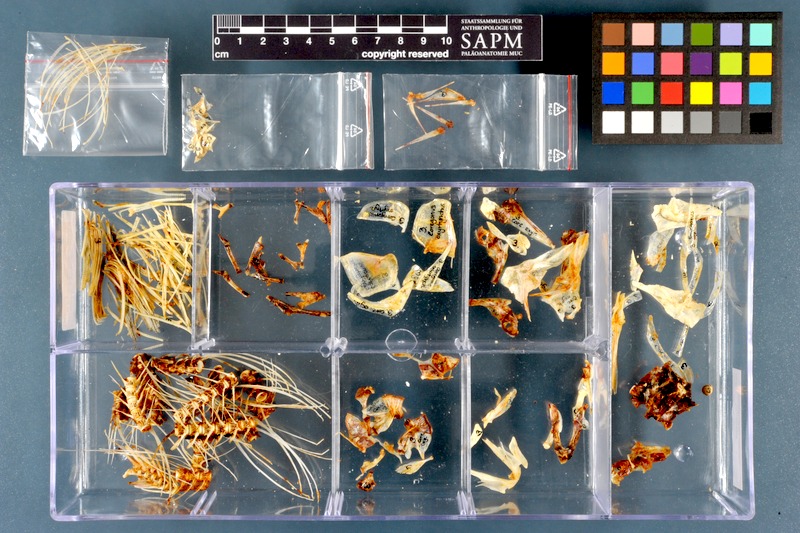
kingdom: Animalia
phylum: Chordata
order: Salmoniformes
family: Salmonidae
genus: Coregonus
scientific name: Coregonus oxyrinchus
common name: Houting
